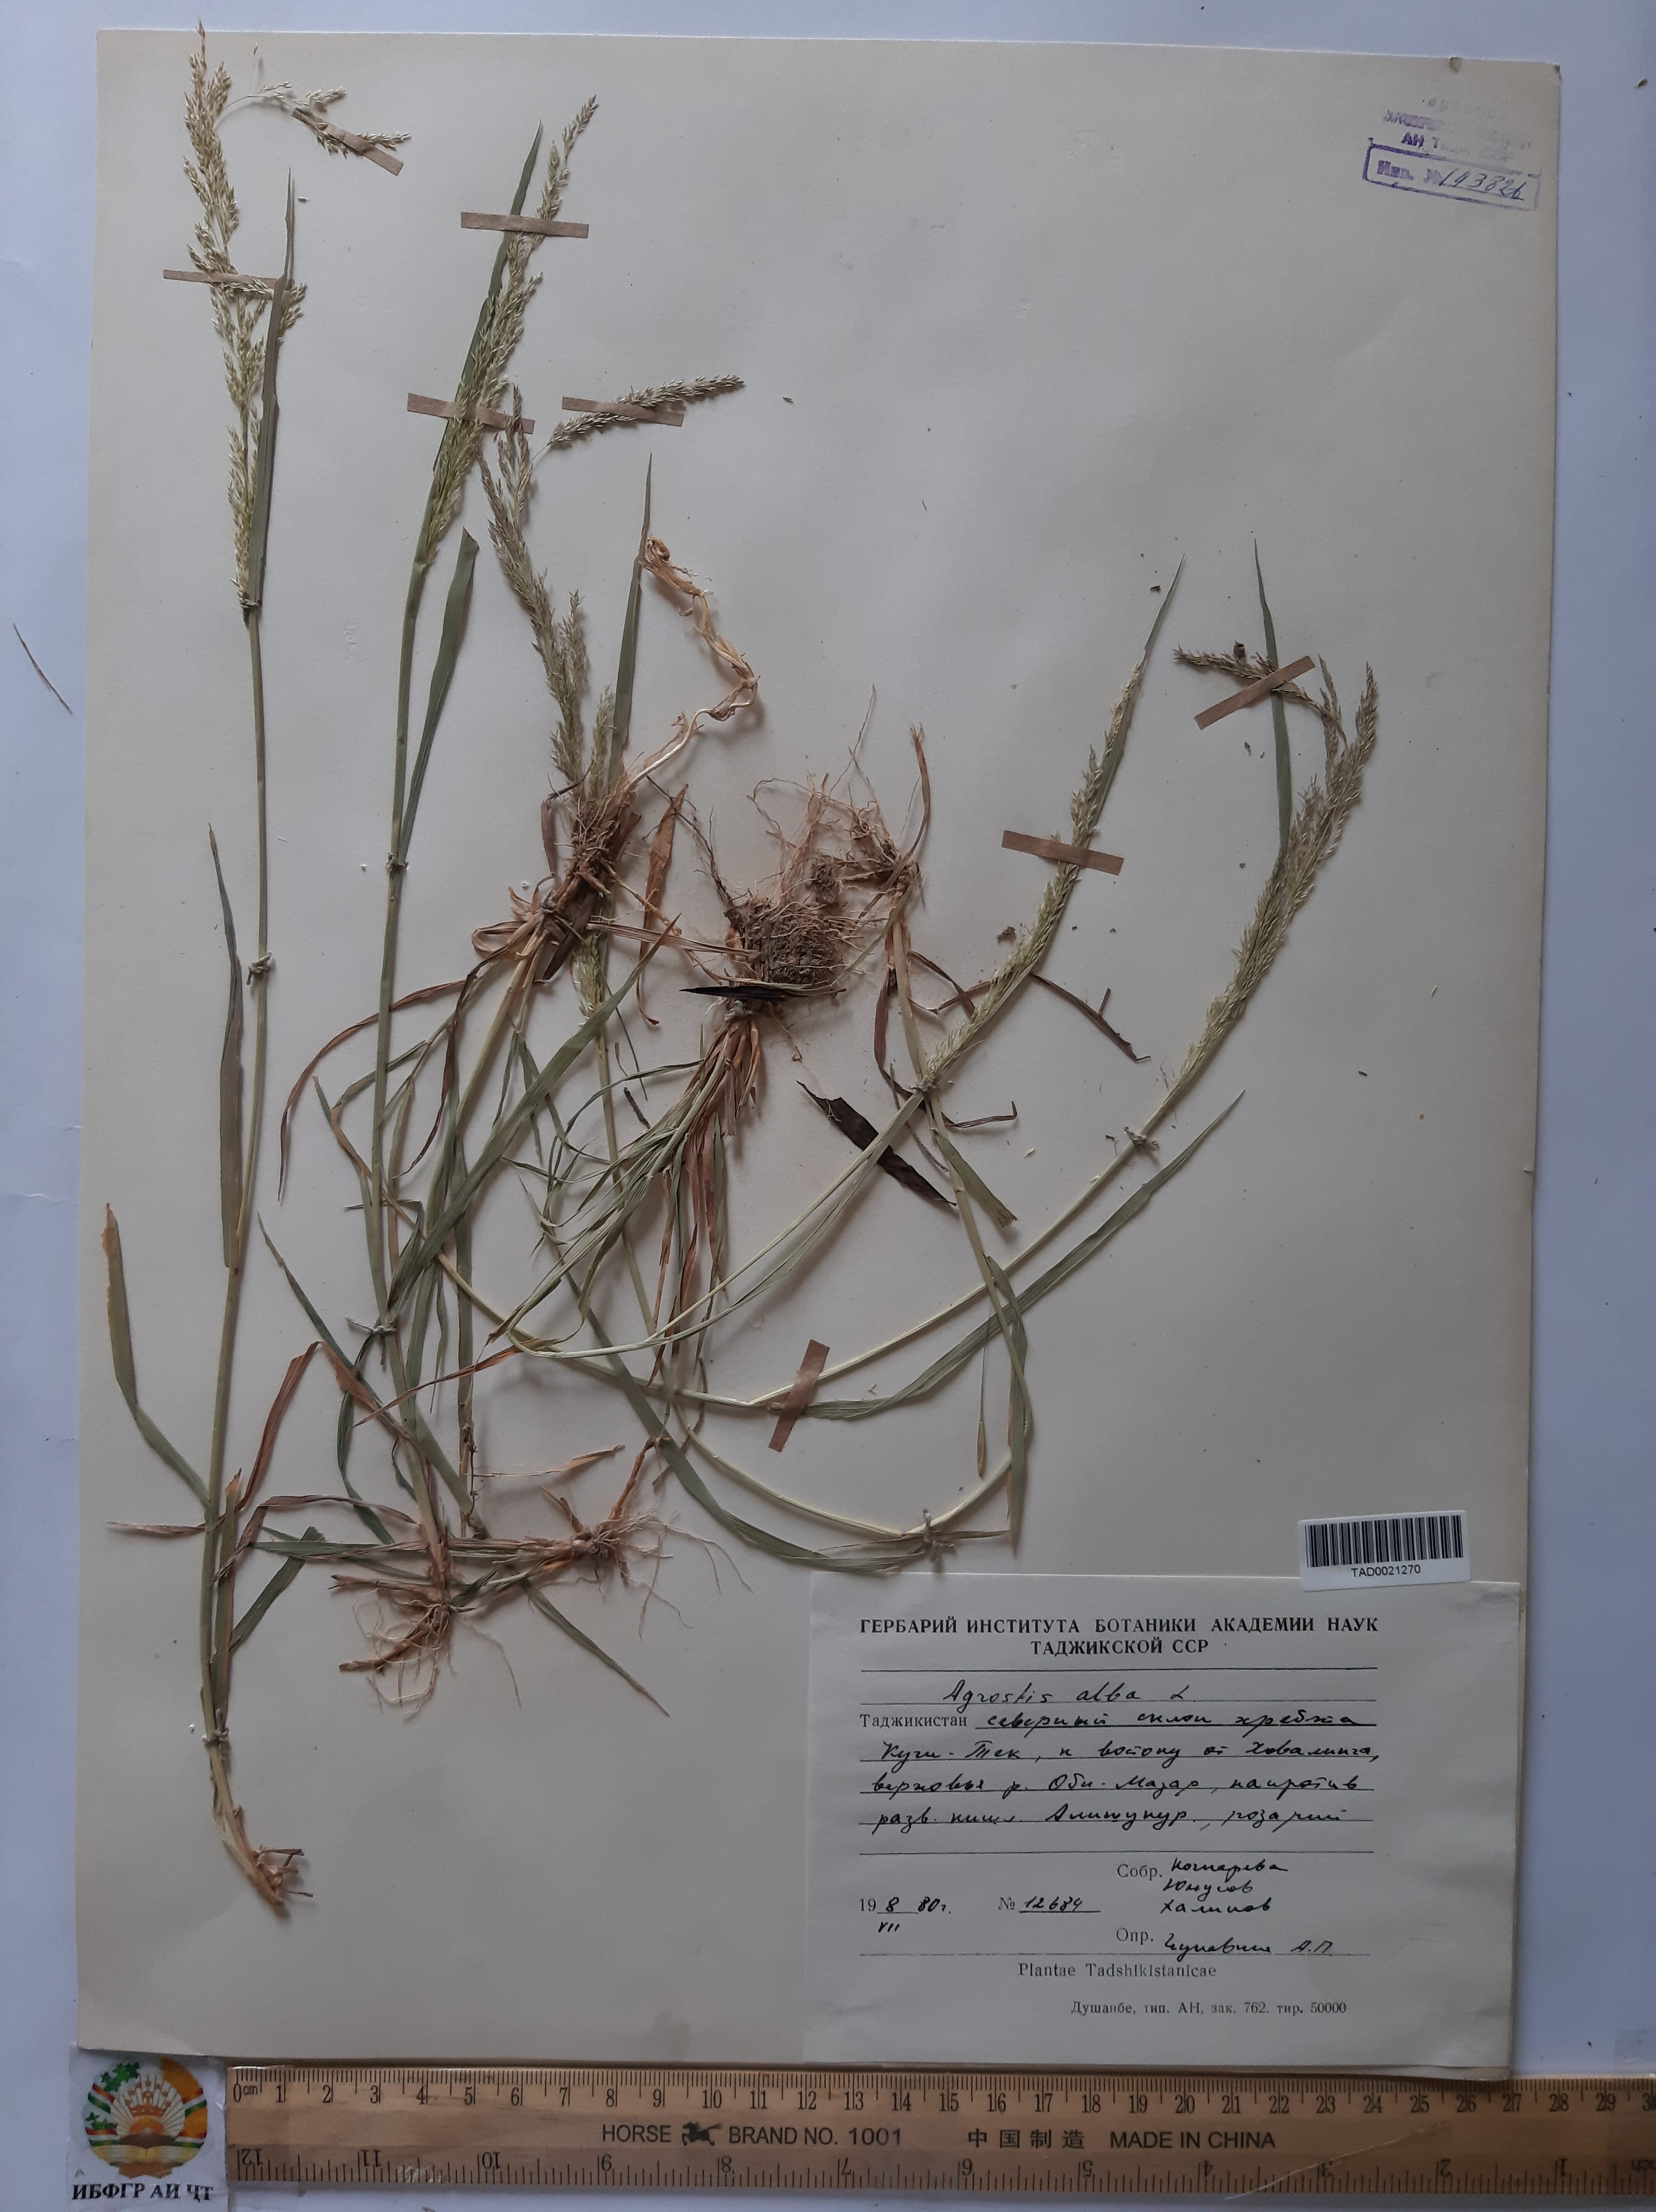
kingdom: Plantae
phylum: Tracheophyta
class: Liliopsida
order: Poales
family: Poaceae
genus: Poa
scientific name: Poa nemoralis
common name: Wood bluegrass
